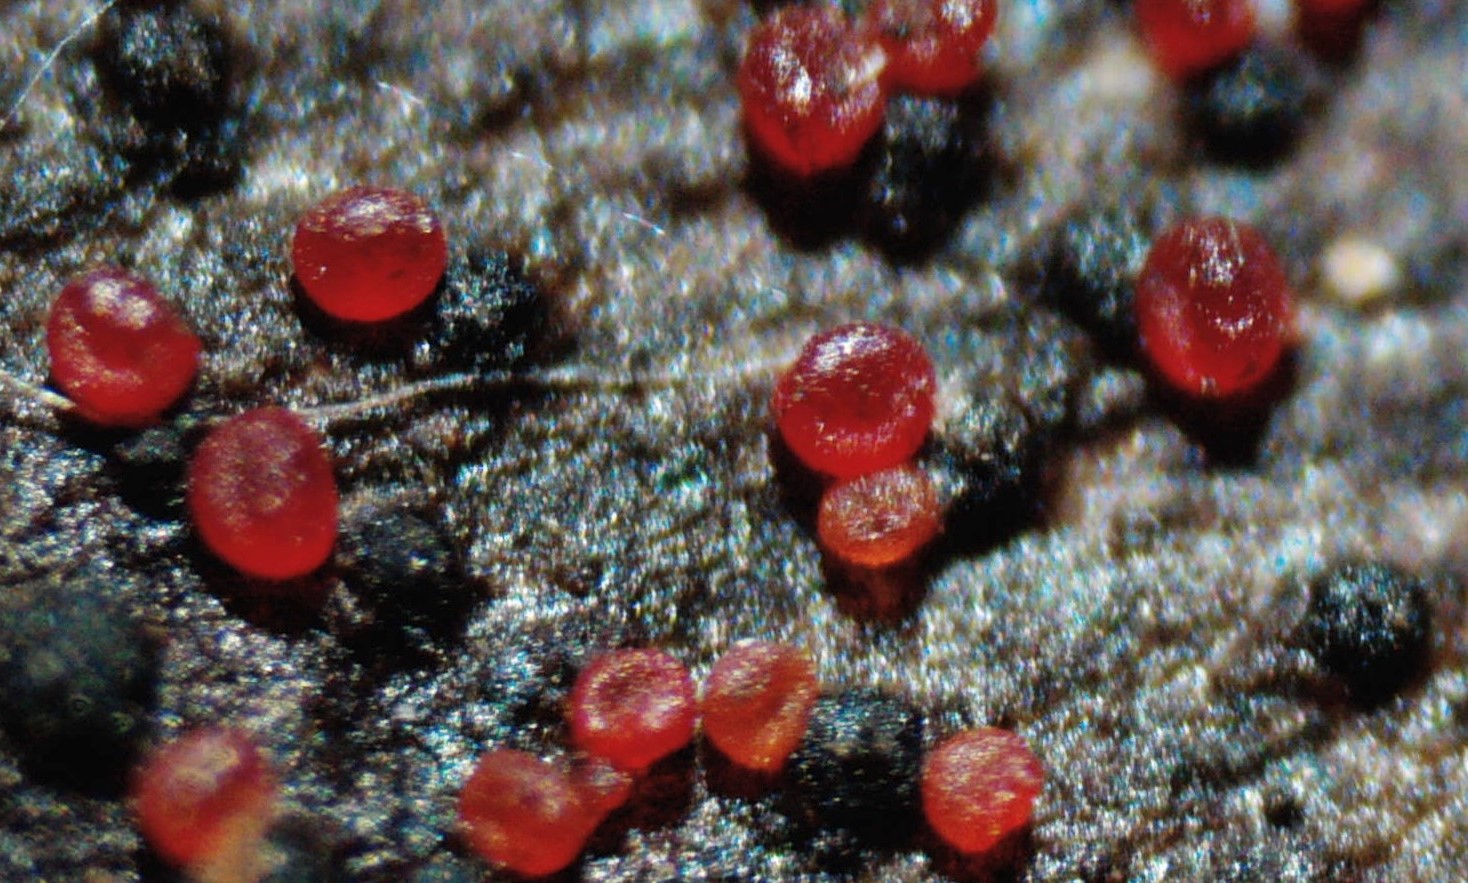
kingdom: Fungi
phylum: Ascomycota
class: Sordariomycetes
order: Hypocreales
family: Nectriaceae
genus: Dialonectria
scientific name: Dialonectria episphaeria
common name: kulskorpe-cinnobersvamp
